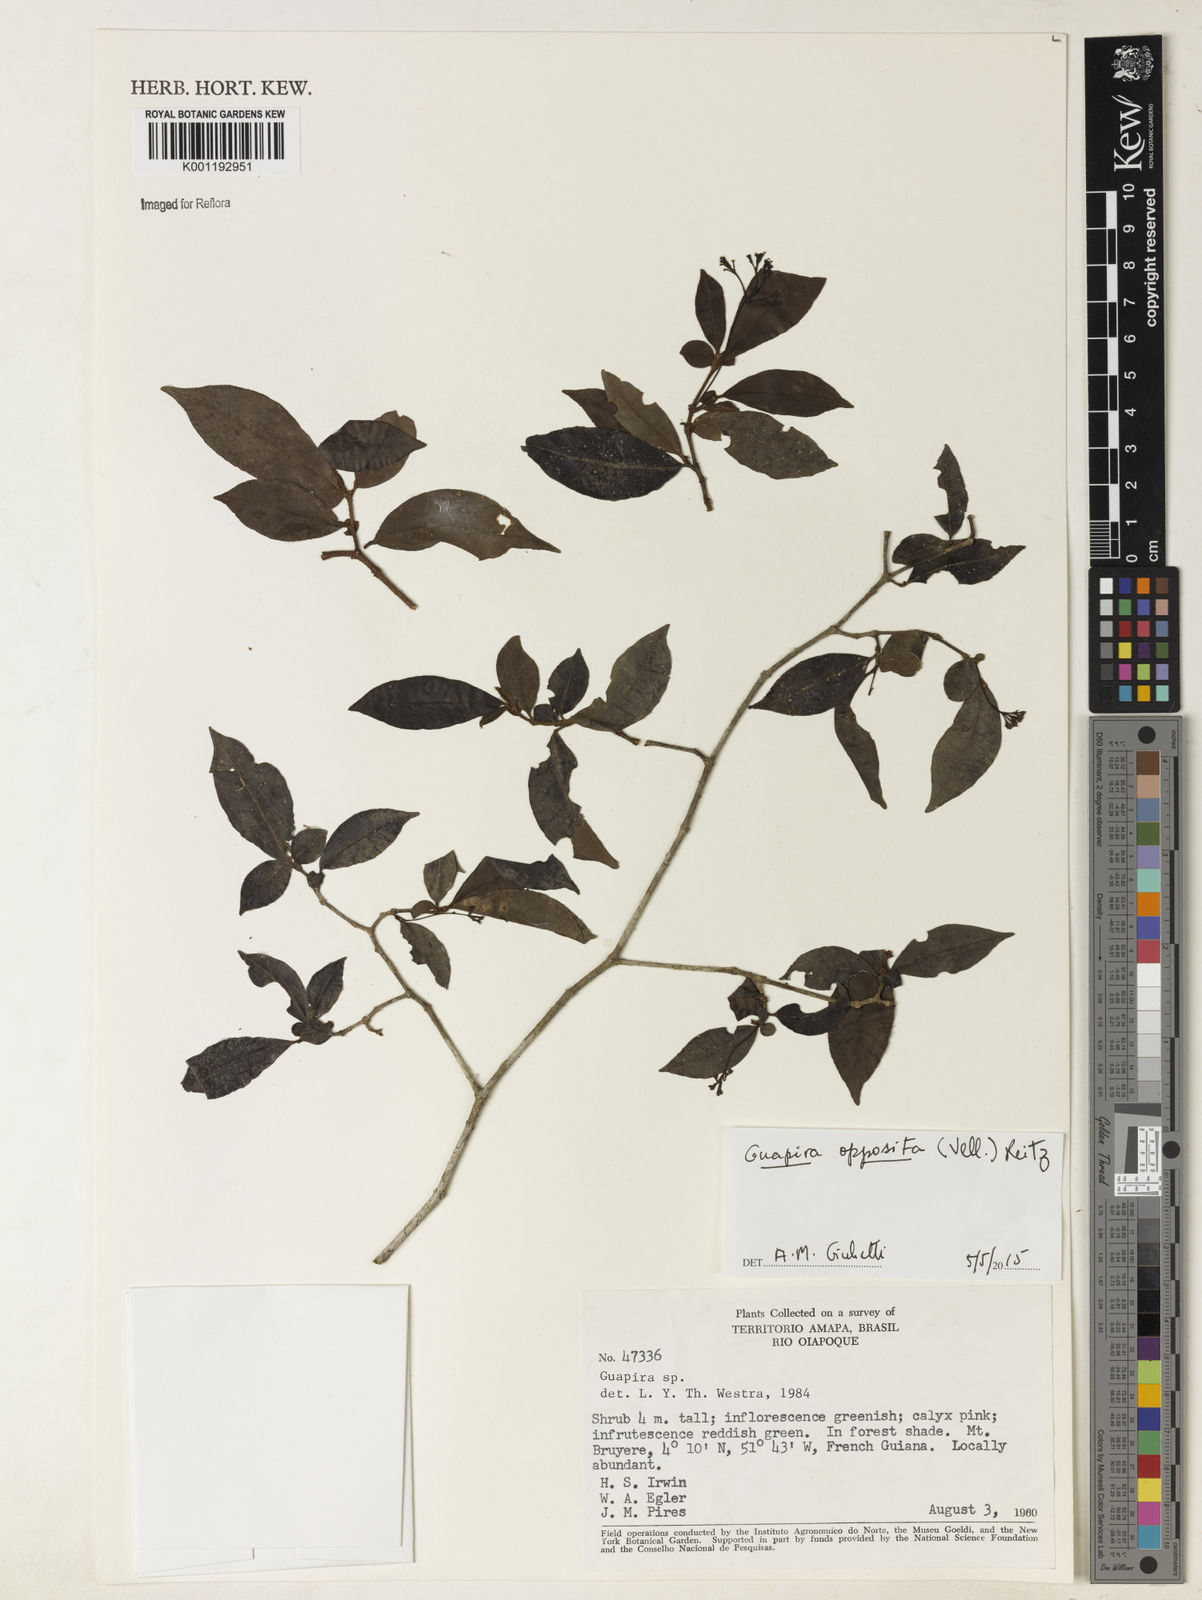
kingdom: Plantae
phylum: Tracheophyta
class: Magnoliopsida
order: Caryophyllales
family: Nyctaginaceae
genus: Guapira
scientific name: Guapira opposita
